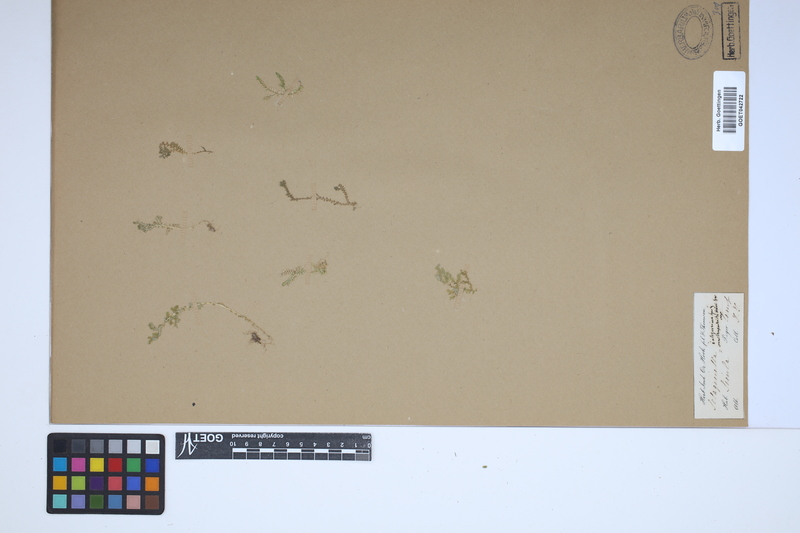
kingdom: Plantae
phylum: Tracheophyta
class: Lycopodiopsida
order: Selaginellales
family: Selaginellaceae
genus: Selaginella
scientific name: Selaginella ornithopodioides
